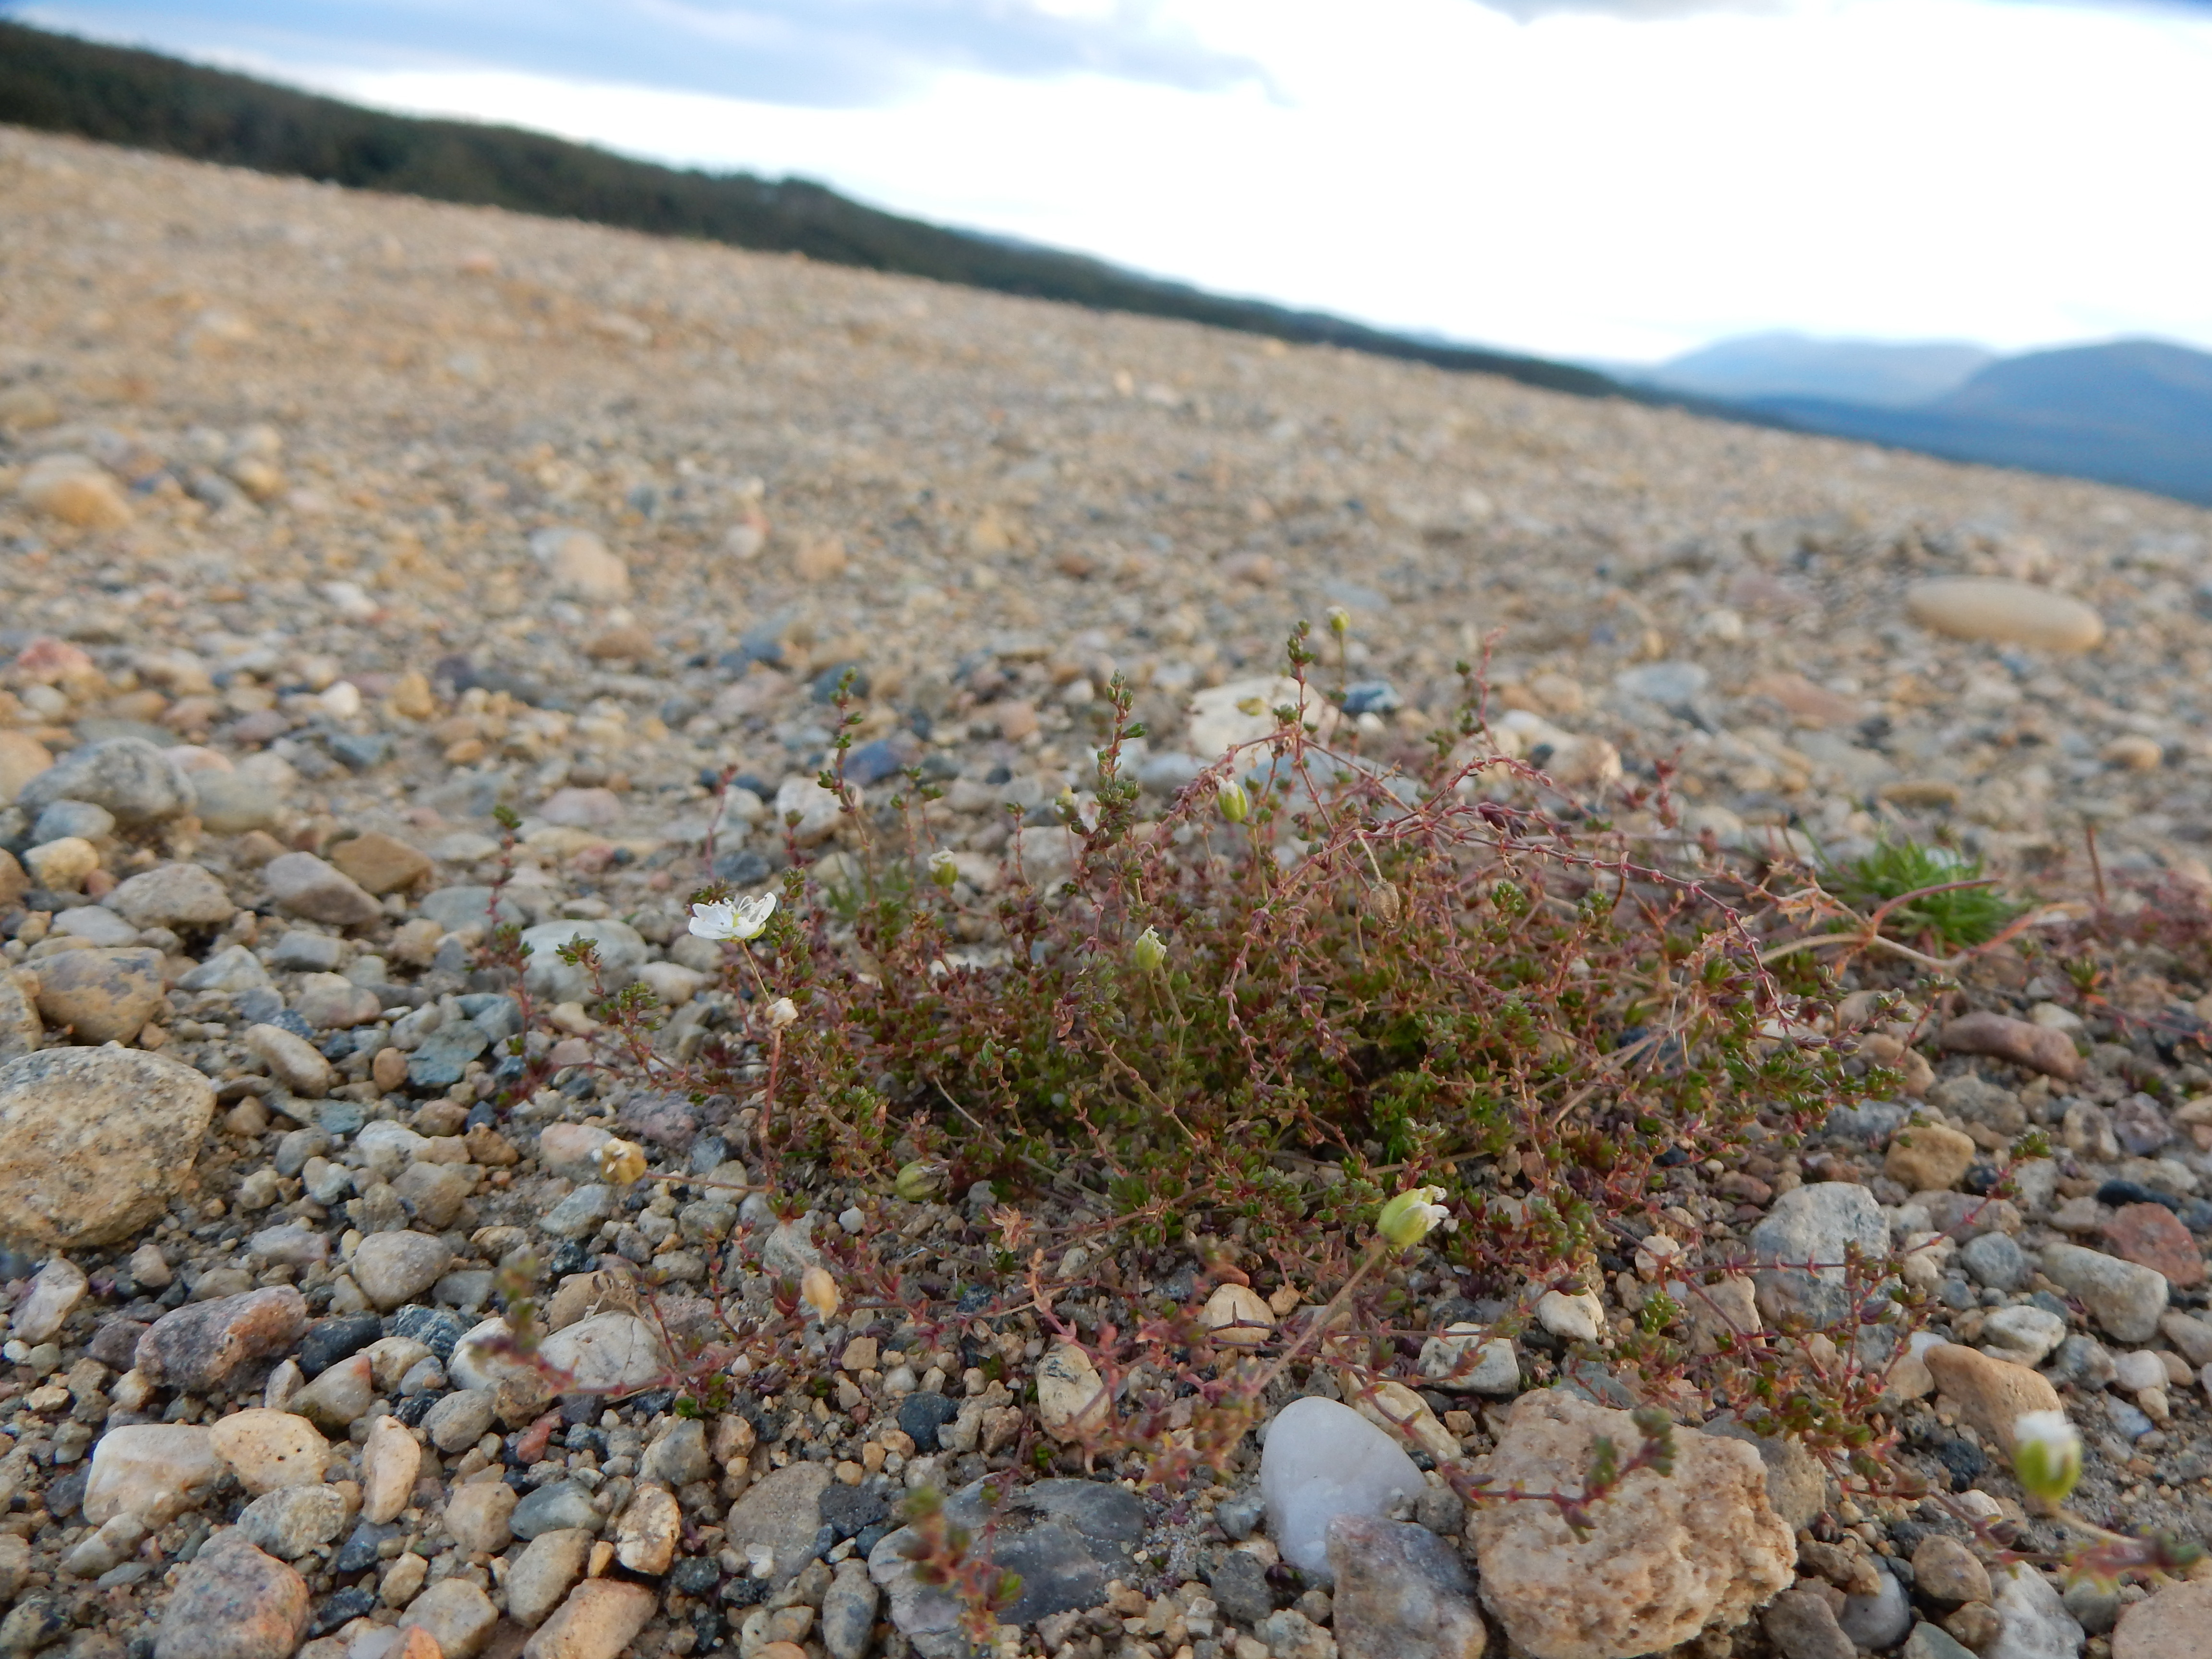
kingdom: Plantae
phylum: Tracheophyta
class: Magnoliopsida
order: Caryophyllales
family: Caryophyllaceae
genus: Sagina
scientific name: Sagina nodosa
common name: Knotted pearlwort
